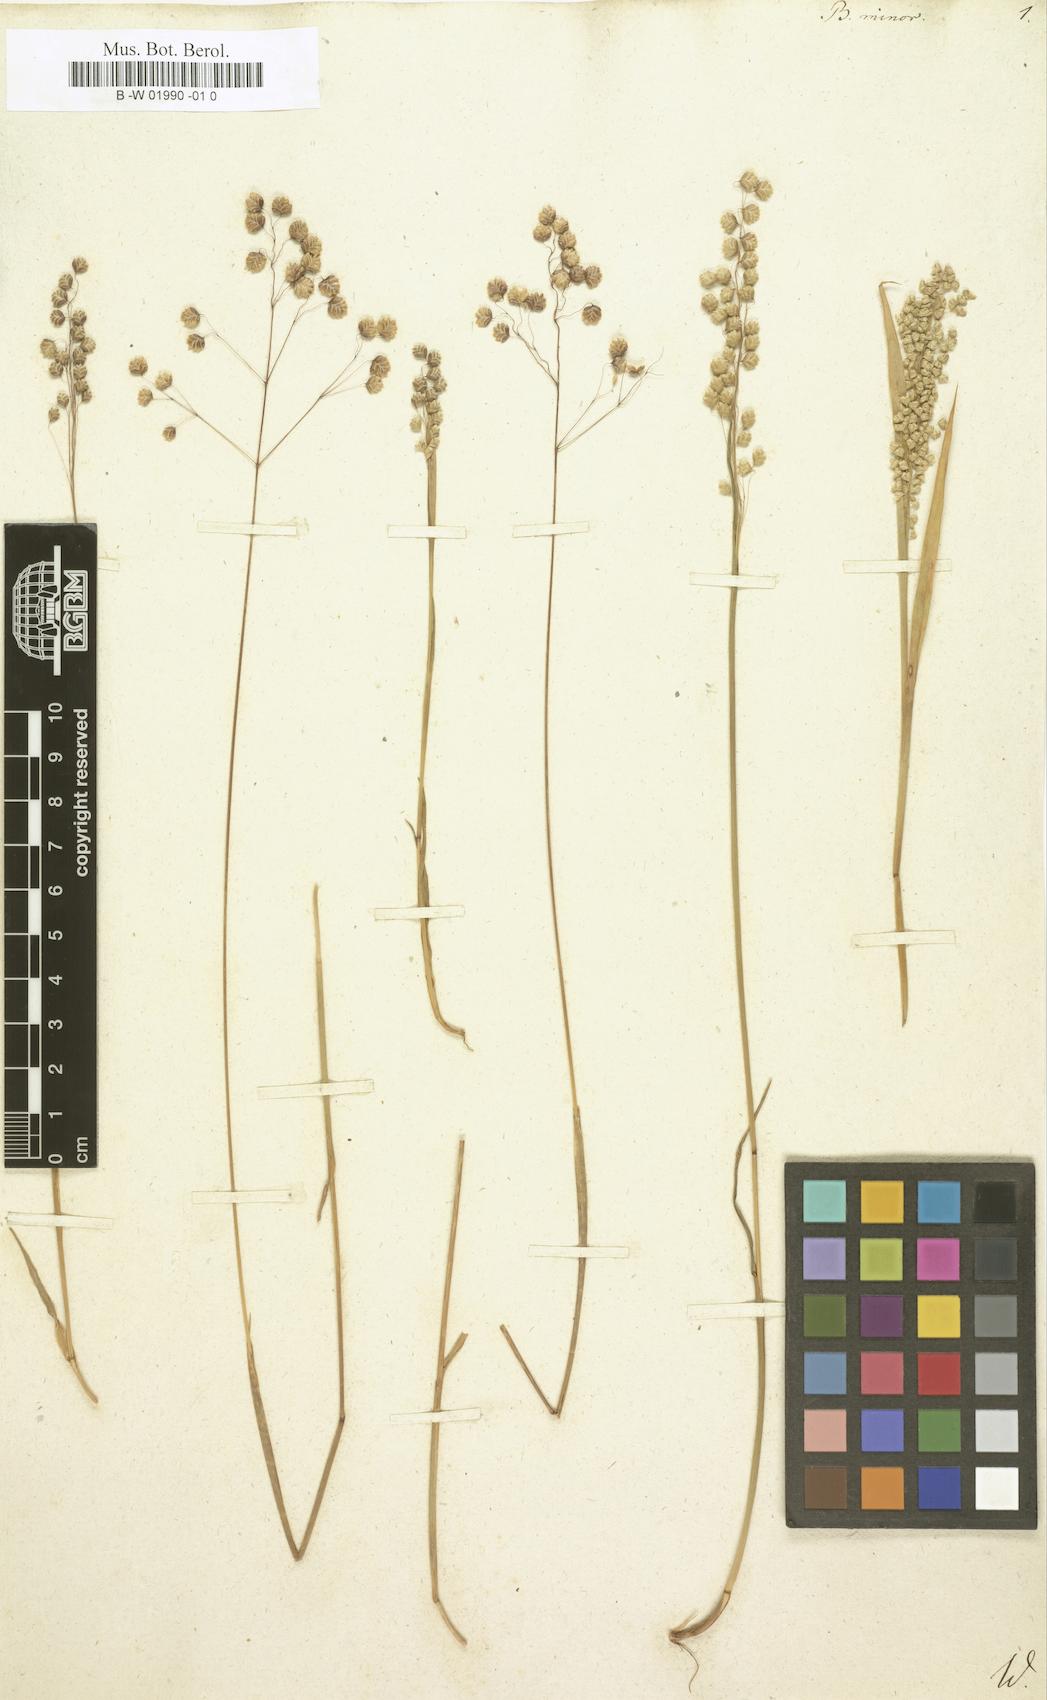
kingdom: Plantae
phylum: Tracheophyta
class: Liliopsida
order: Poales
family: Poaceae
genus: Briza
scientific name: Briza minor
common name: Lesser quaking-grass
